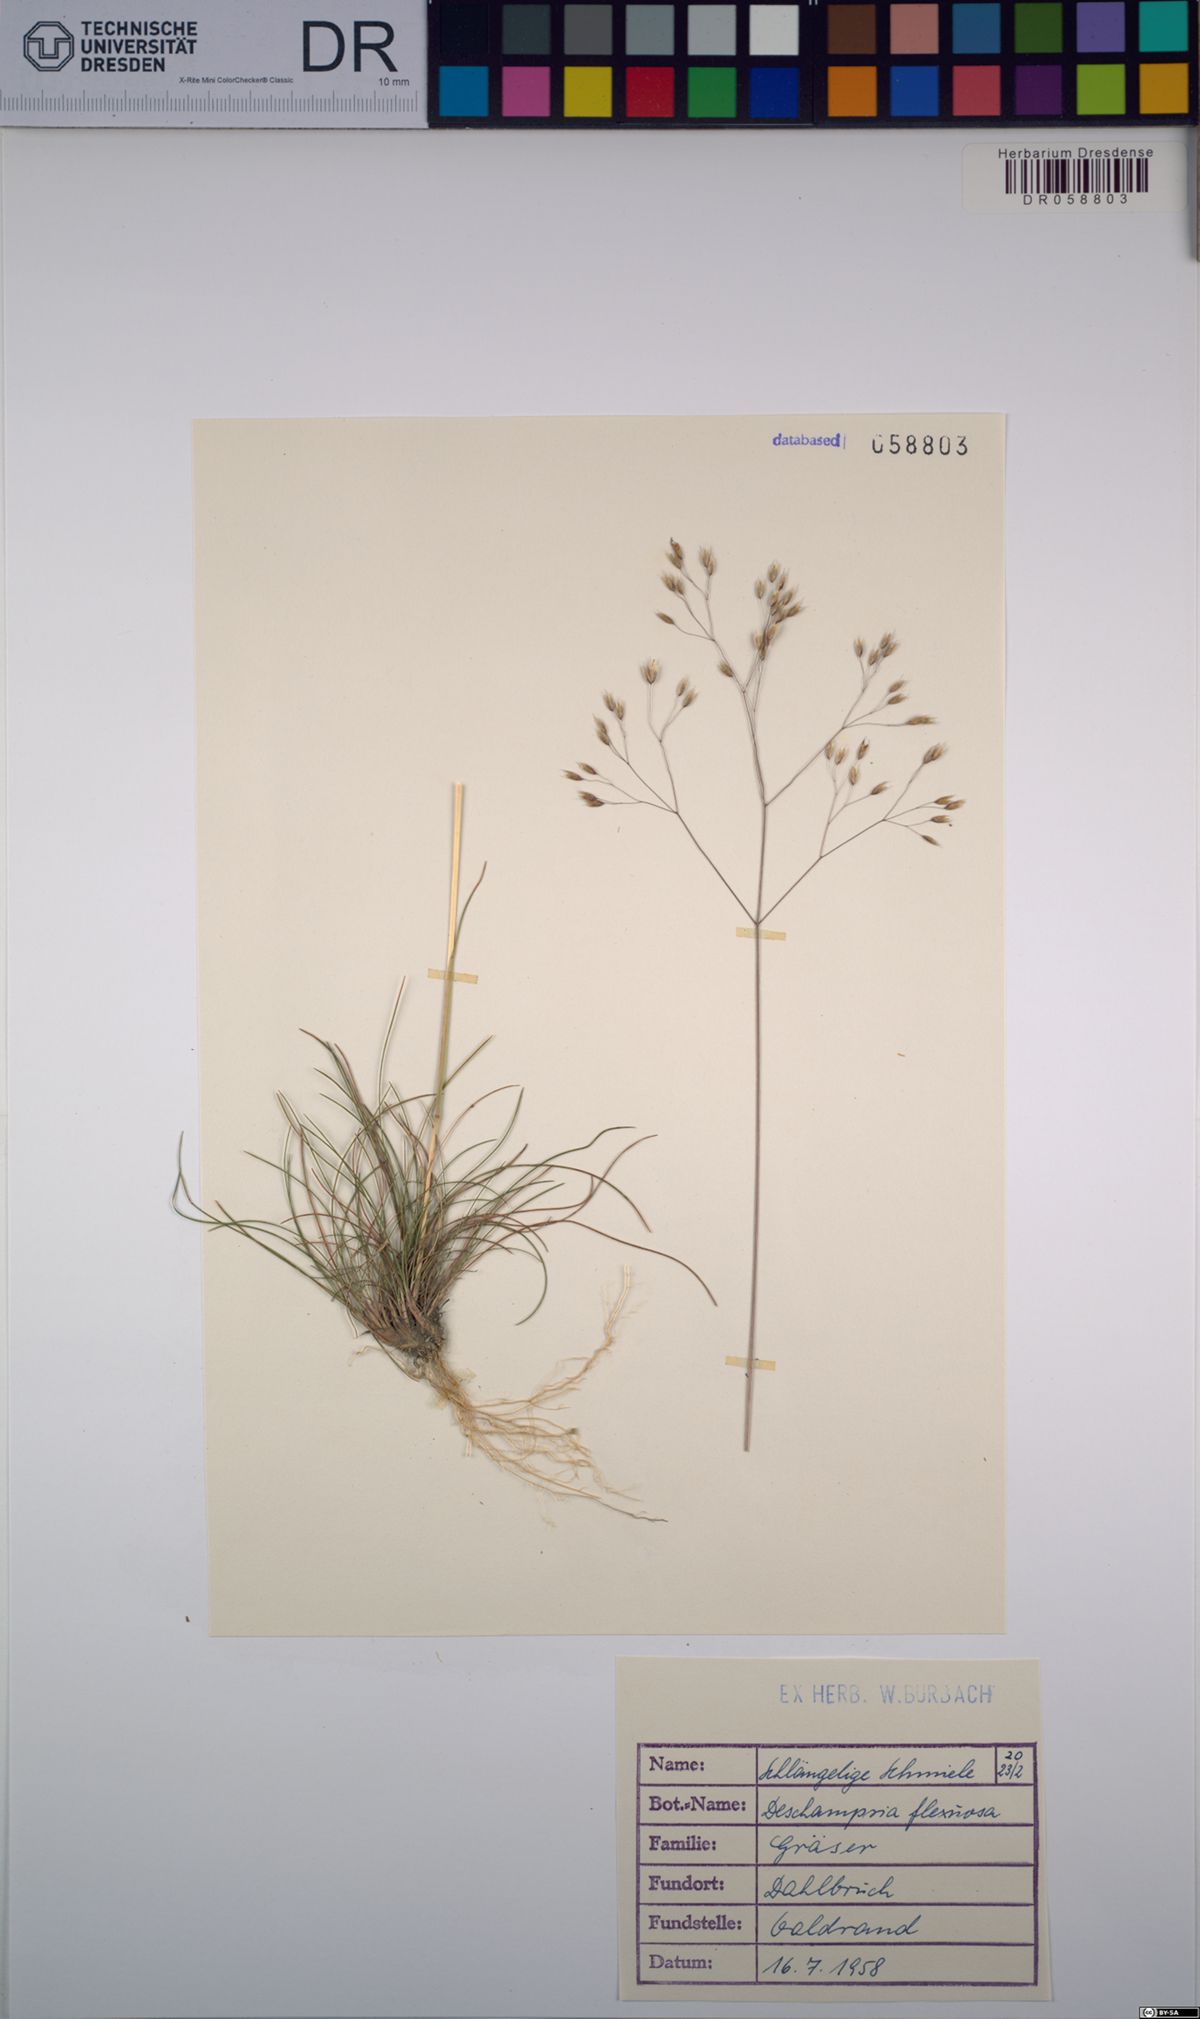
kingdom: Plantae
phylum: Tracheophyta
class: Liliopsida
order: Poales
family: Poaceae
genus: Avenella
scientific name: Avenella flexuosa
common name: Wavy hairgrass
